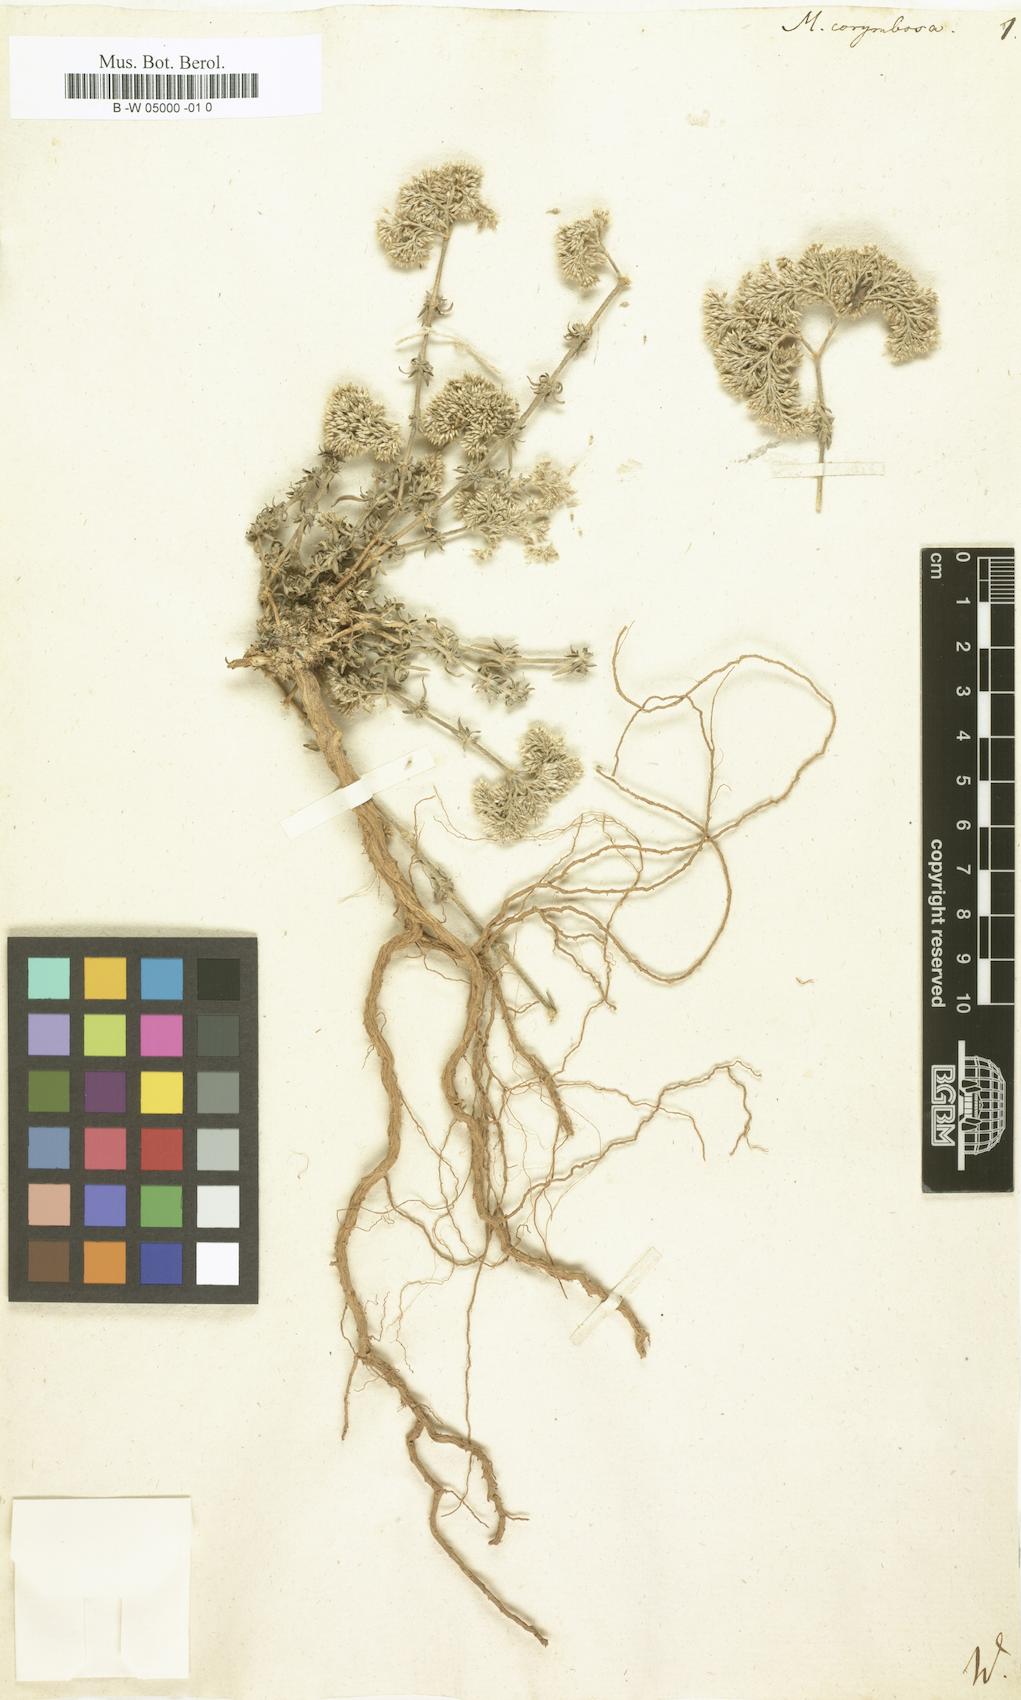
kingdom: Plantae
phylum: Tracheophyta
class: Magnoliopsida
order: Caryophyllales
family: Caryophyllaceae
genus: Polycarpaea
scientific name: Polycarpaea corymbosa
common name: Oldman's cap
